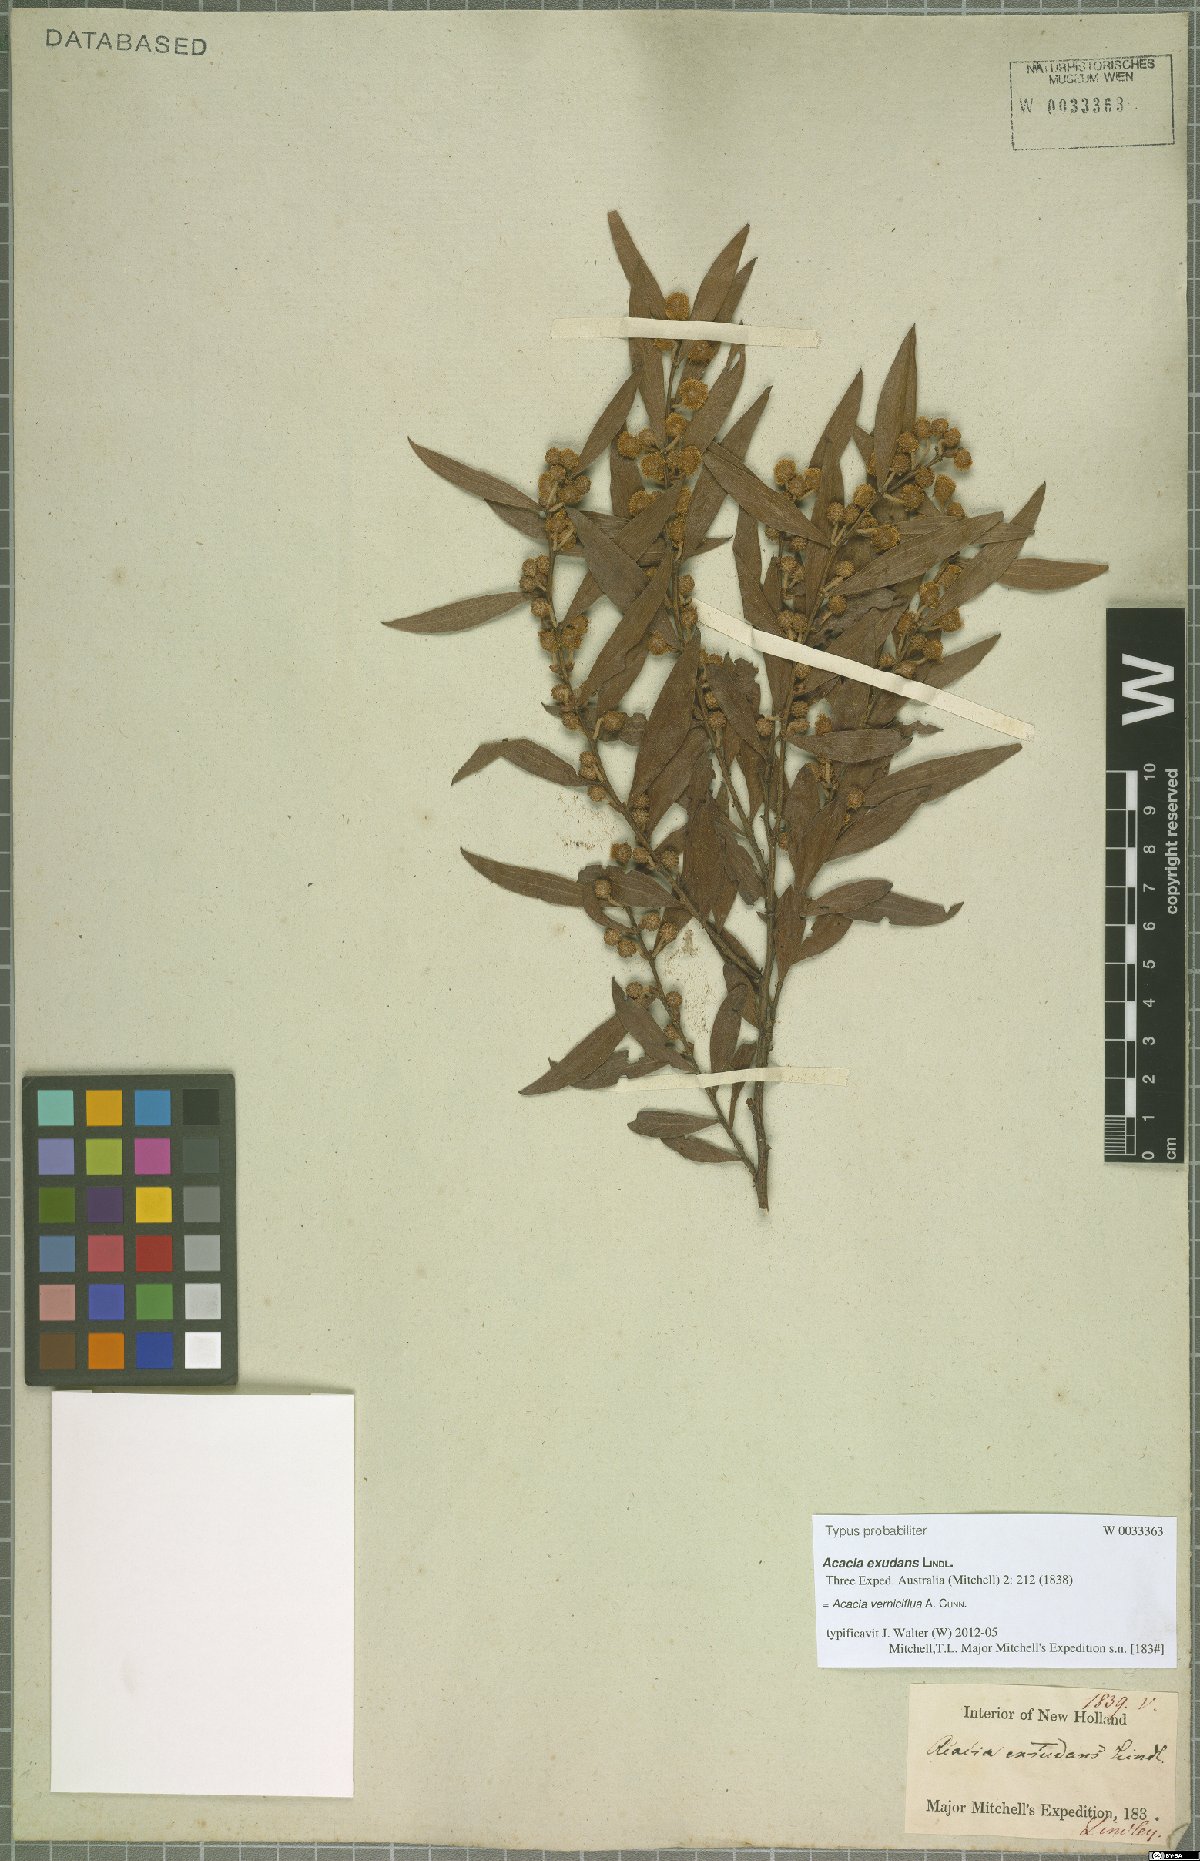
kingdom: Plantae
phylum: Tracheophyta
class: Magnoliopsida
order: Fabales
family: Fabaceae
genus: Acacia
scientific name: Acacia verniciflua
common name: Varnish wattle
